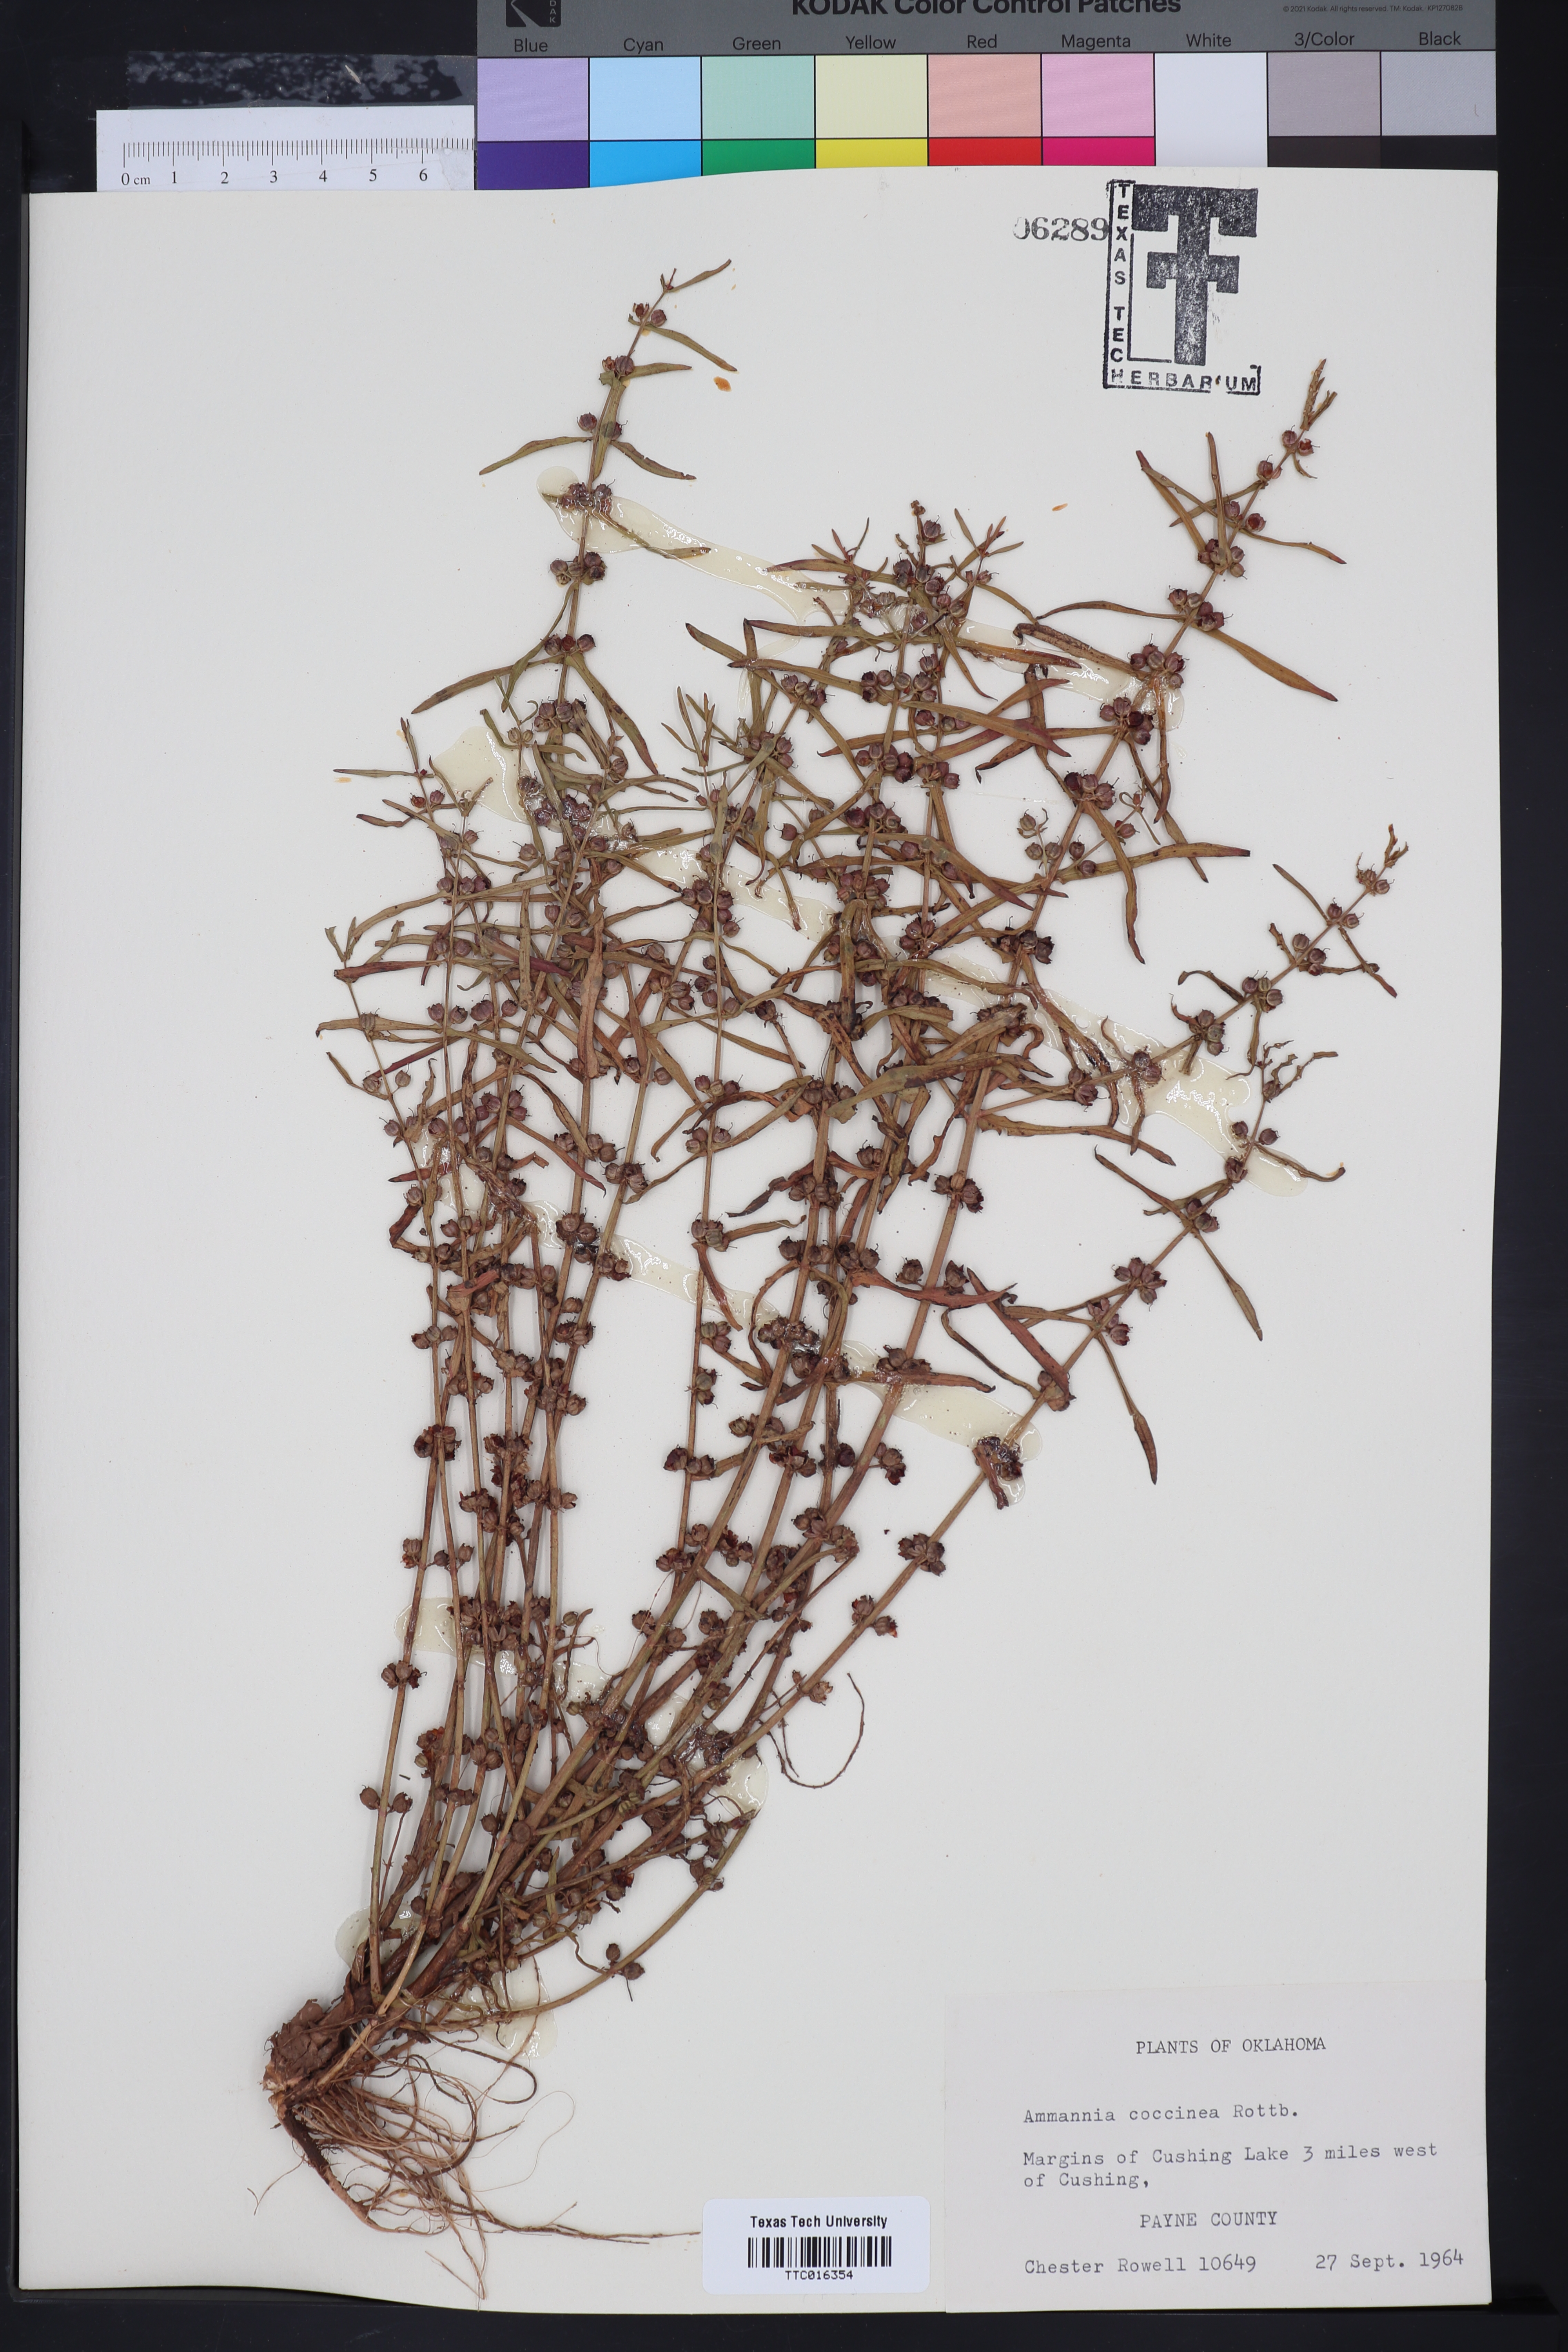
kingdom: Plantae
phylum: Tracheophyta
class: Magnoliopsida
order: Myrtales
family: Lythraceae
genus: Ammannia
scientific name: Ammannia coccinea
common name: Valley redstem
